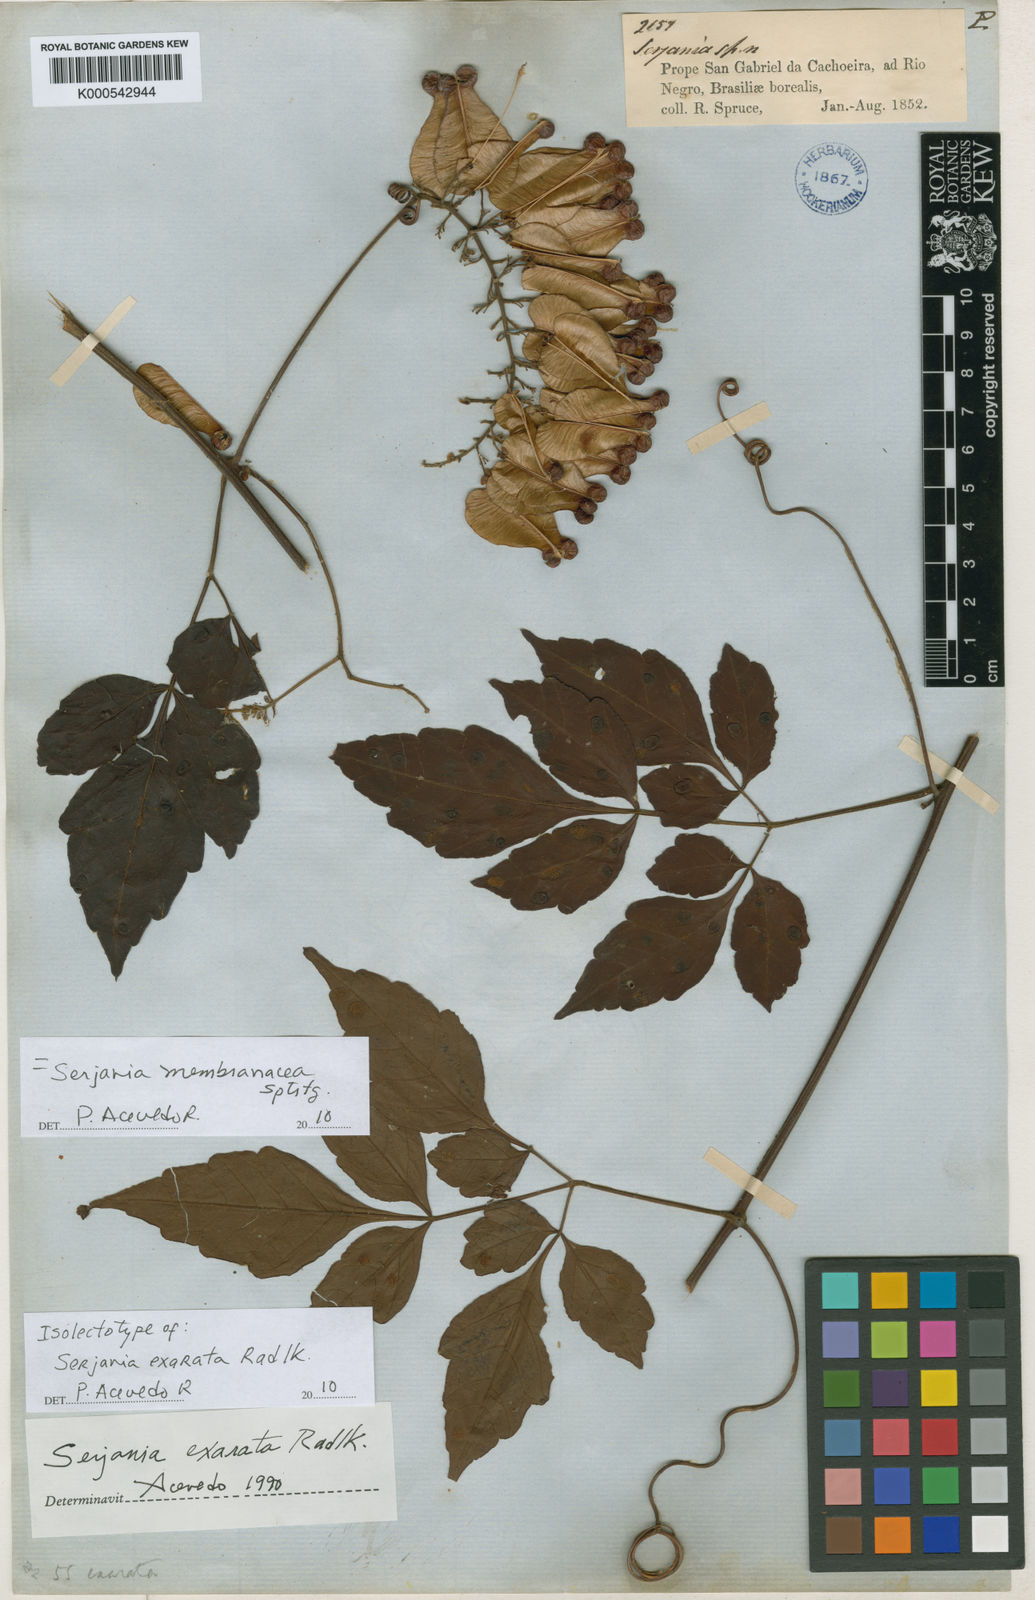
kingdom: Plantae
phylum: Tracheophyta
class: Magnoliopsida
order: Sapindales
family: Sapindaceae
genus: Serjania
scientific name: Serjania membranacea
